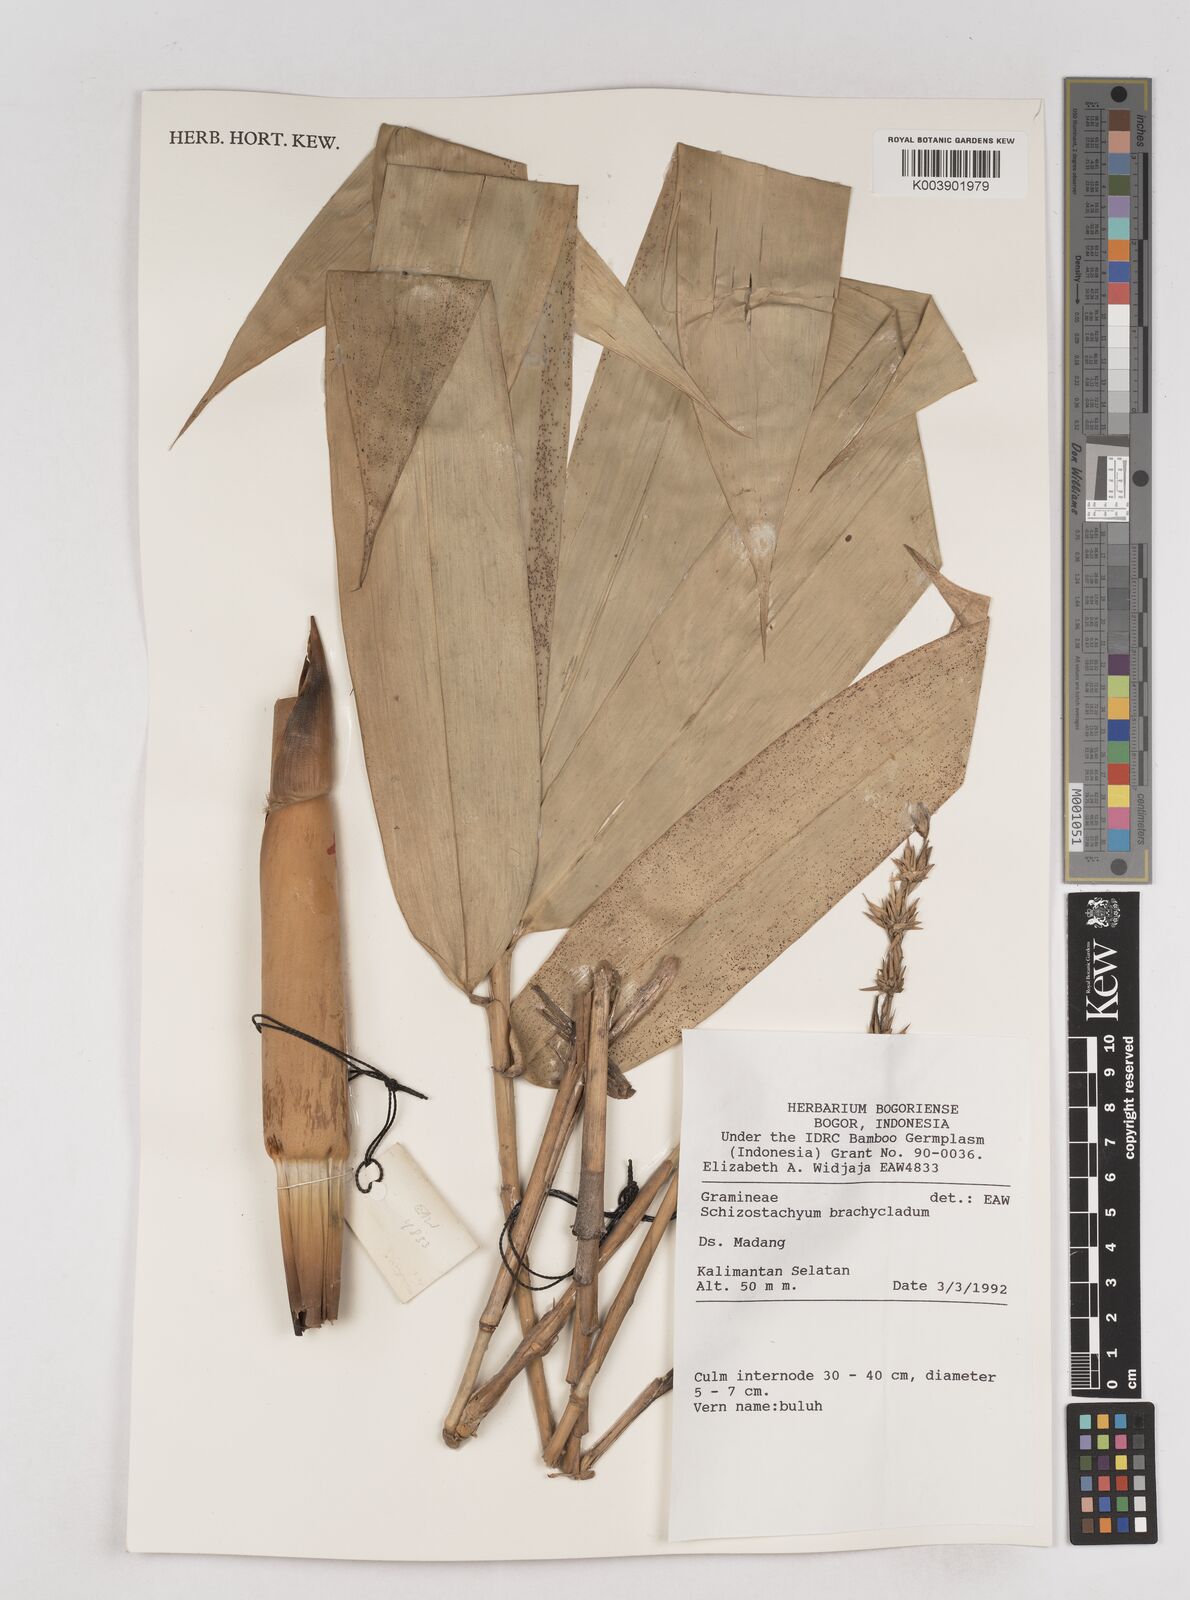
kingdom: Plantae
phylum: Tracheophyta
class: Liliopsida
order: Poales
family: Poaceae
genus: Schizostachyum
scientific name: Schizostachyum brachycladum
